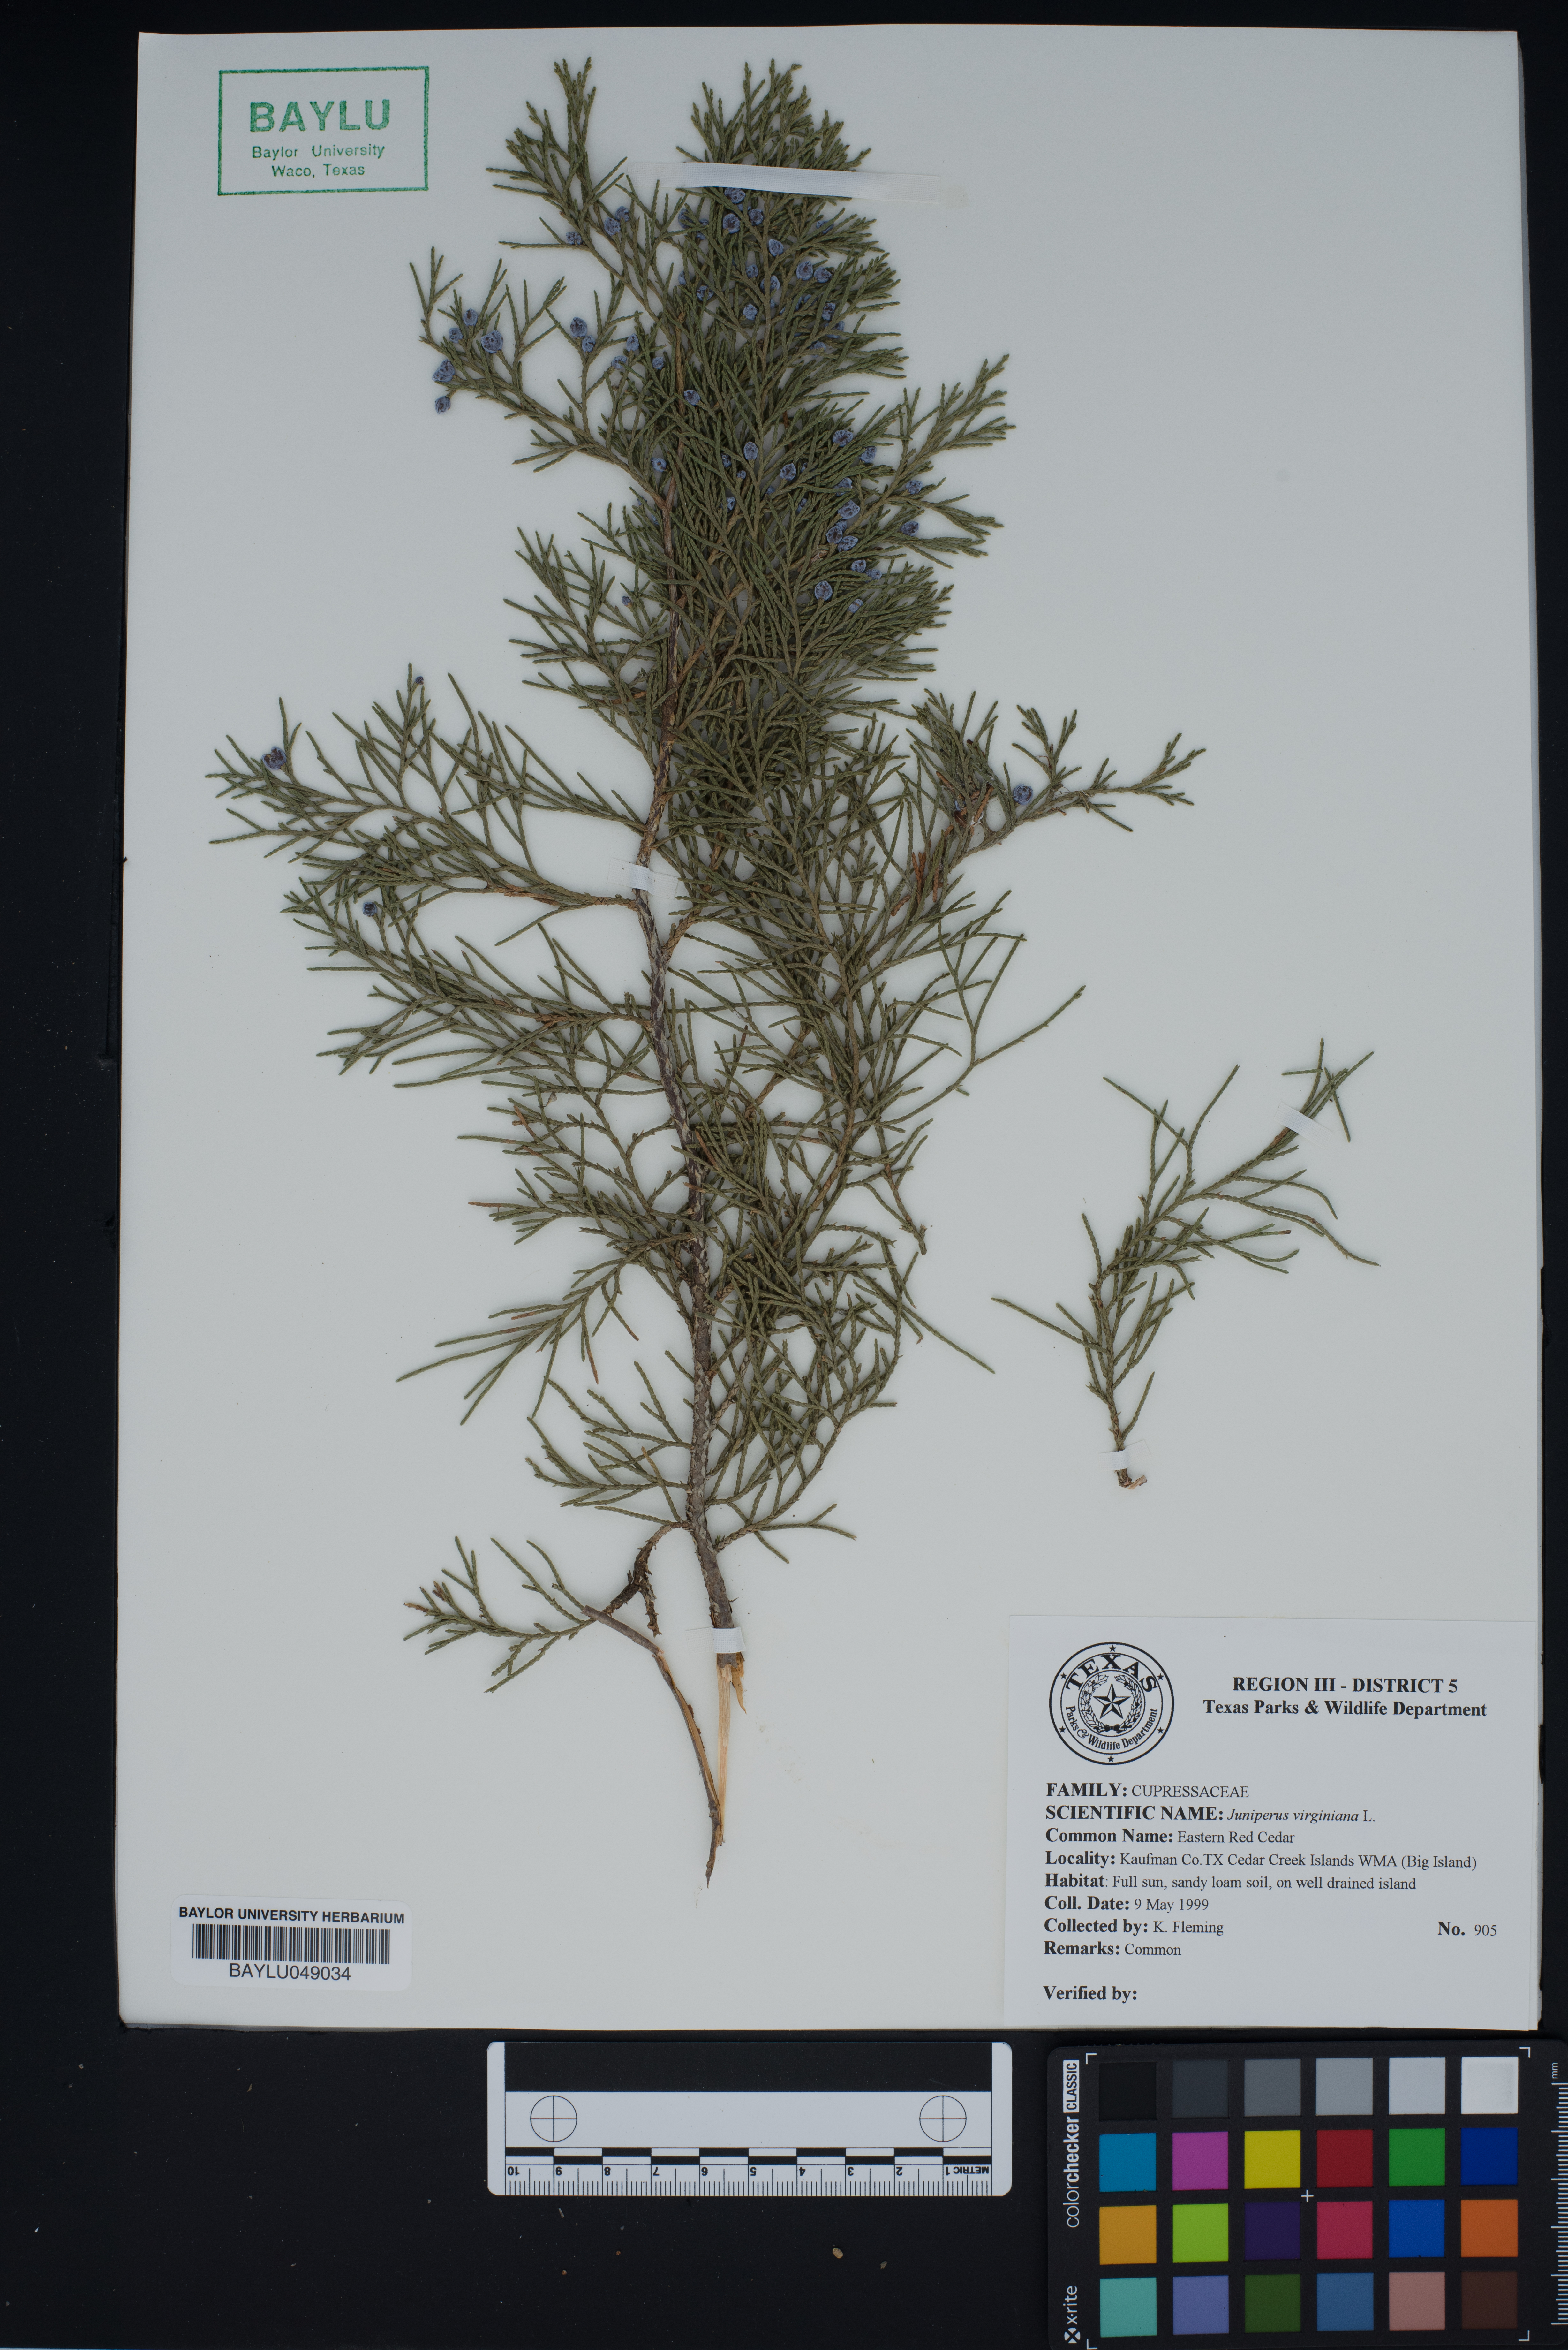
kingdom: Plantae
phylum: Tracheophyta
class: Pinopsida
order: Pinales
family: Cupressaceae
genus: Juniperus
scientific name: Juniperus virginiana
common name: Red juniper
